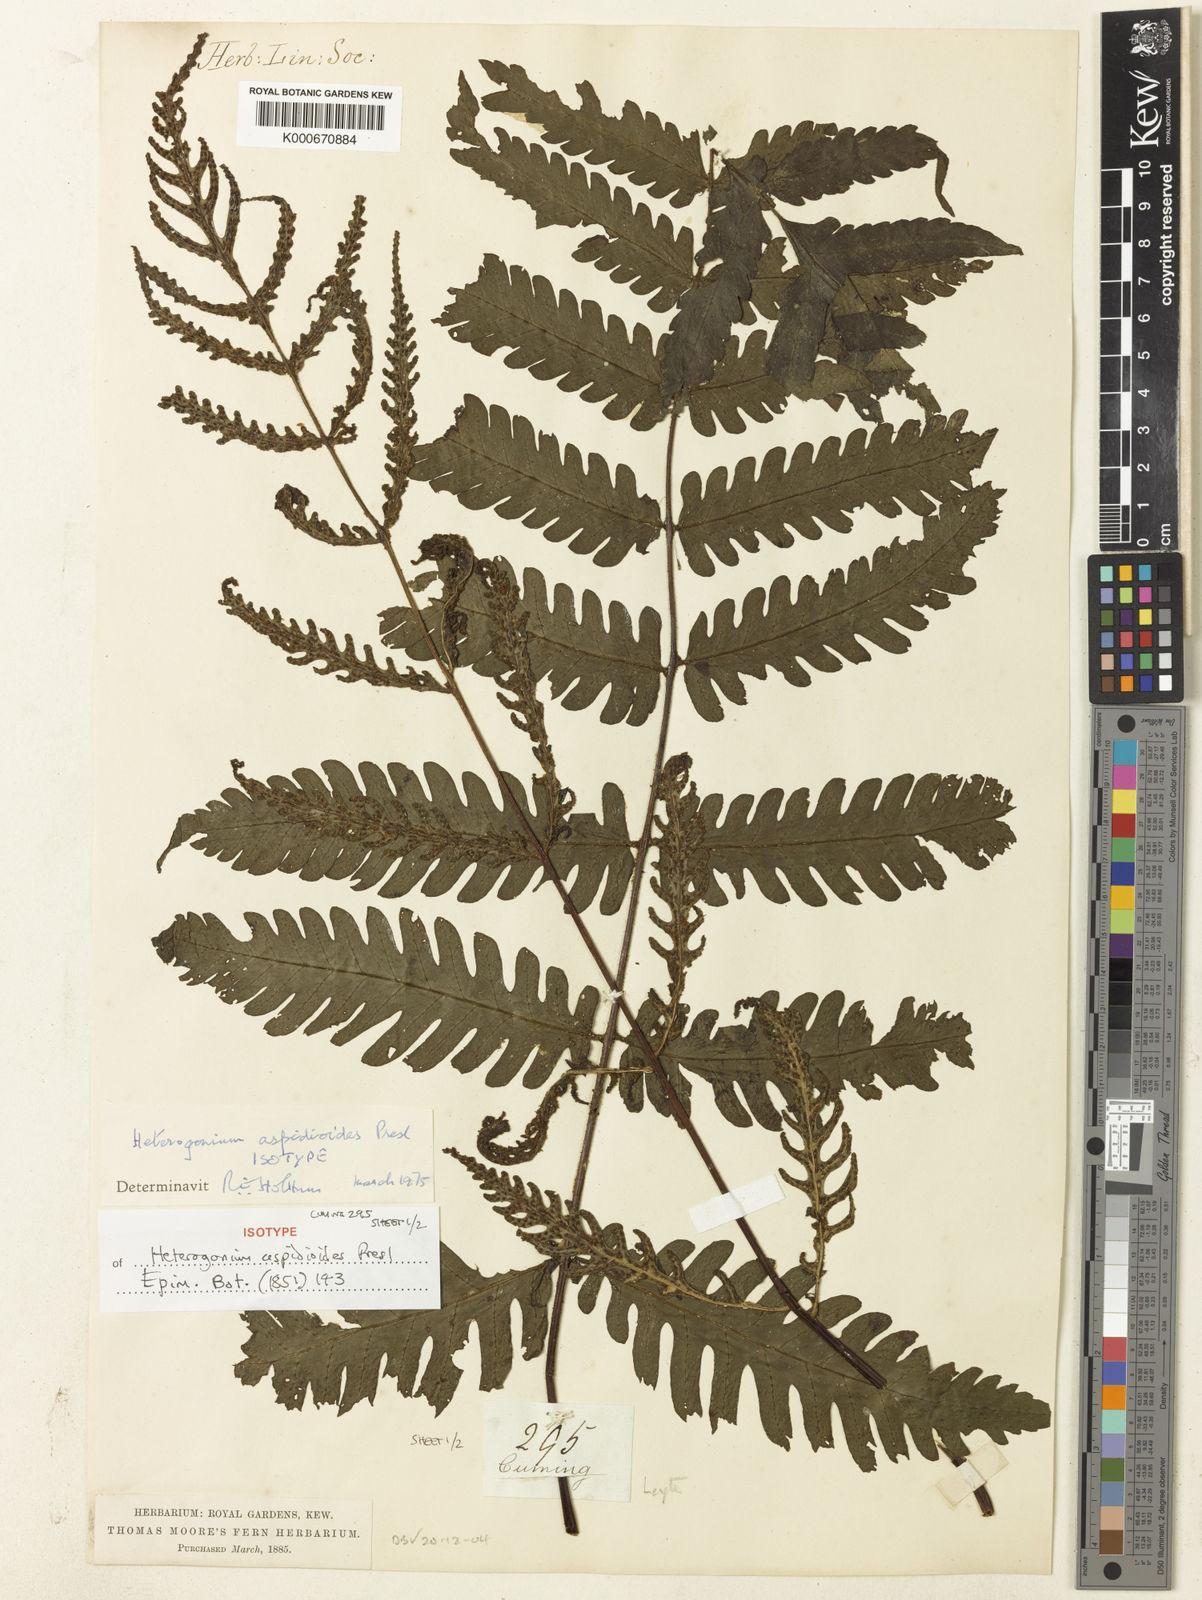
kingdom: Plantae
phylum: Tracheophyta
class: Polypodiopsida
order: Polypodiales
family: Tectariaceae
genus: Tectaria
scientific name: Tectaria aspidioides
